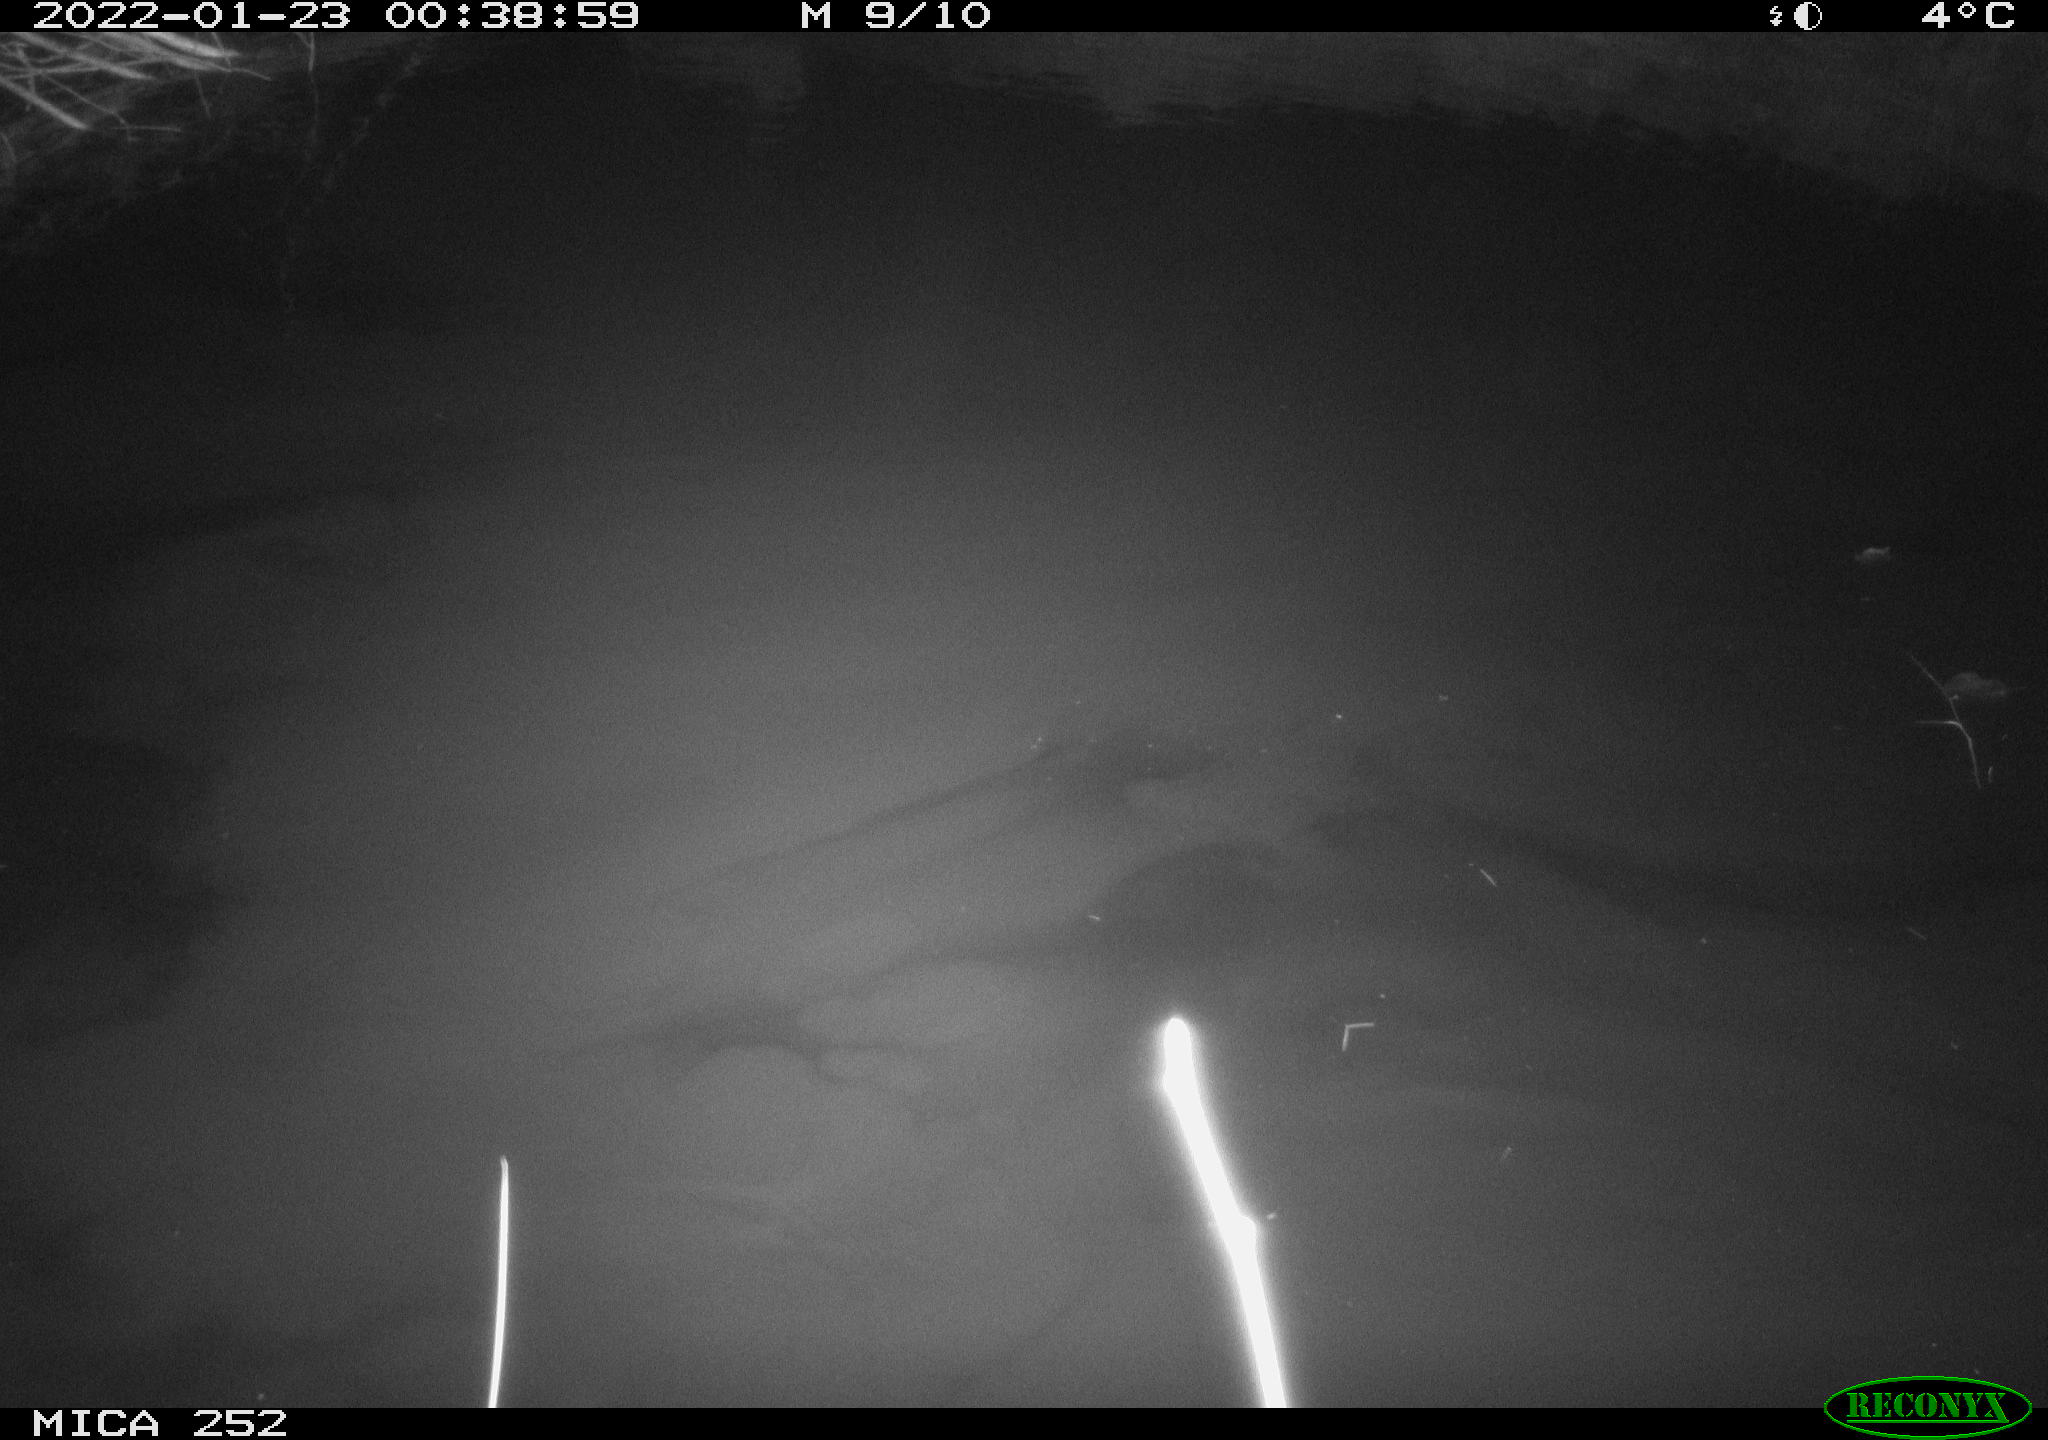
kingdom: Animalia
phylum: Chordata
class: Mammalia
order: Rodentia
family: Castoridae
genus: Castor
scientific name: Castor fiber
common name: Eurasian beaver
